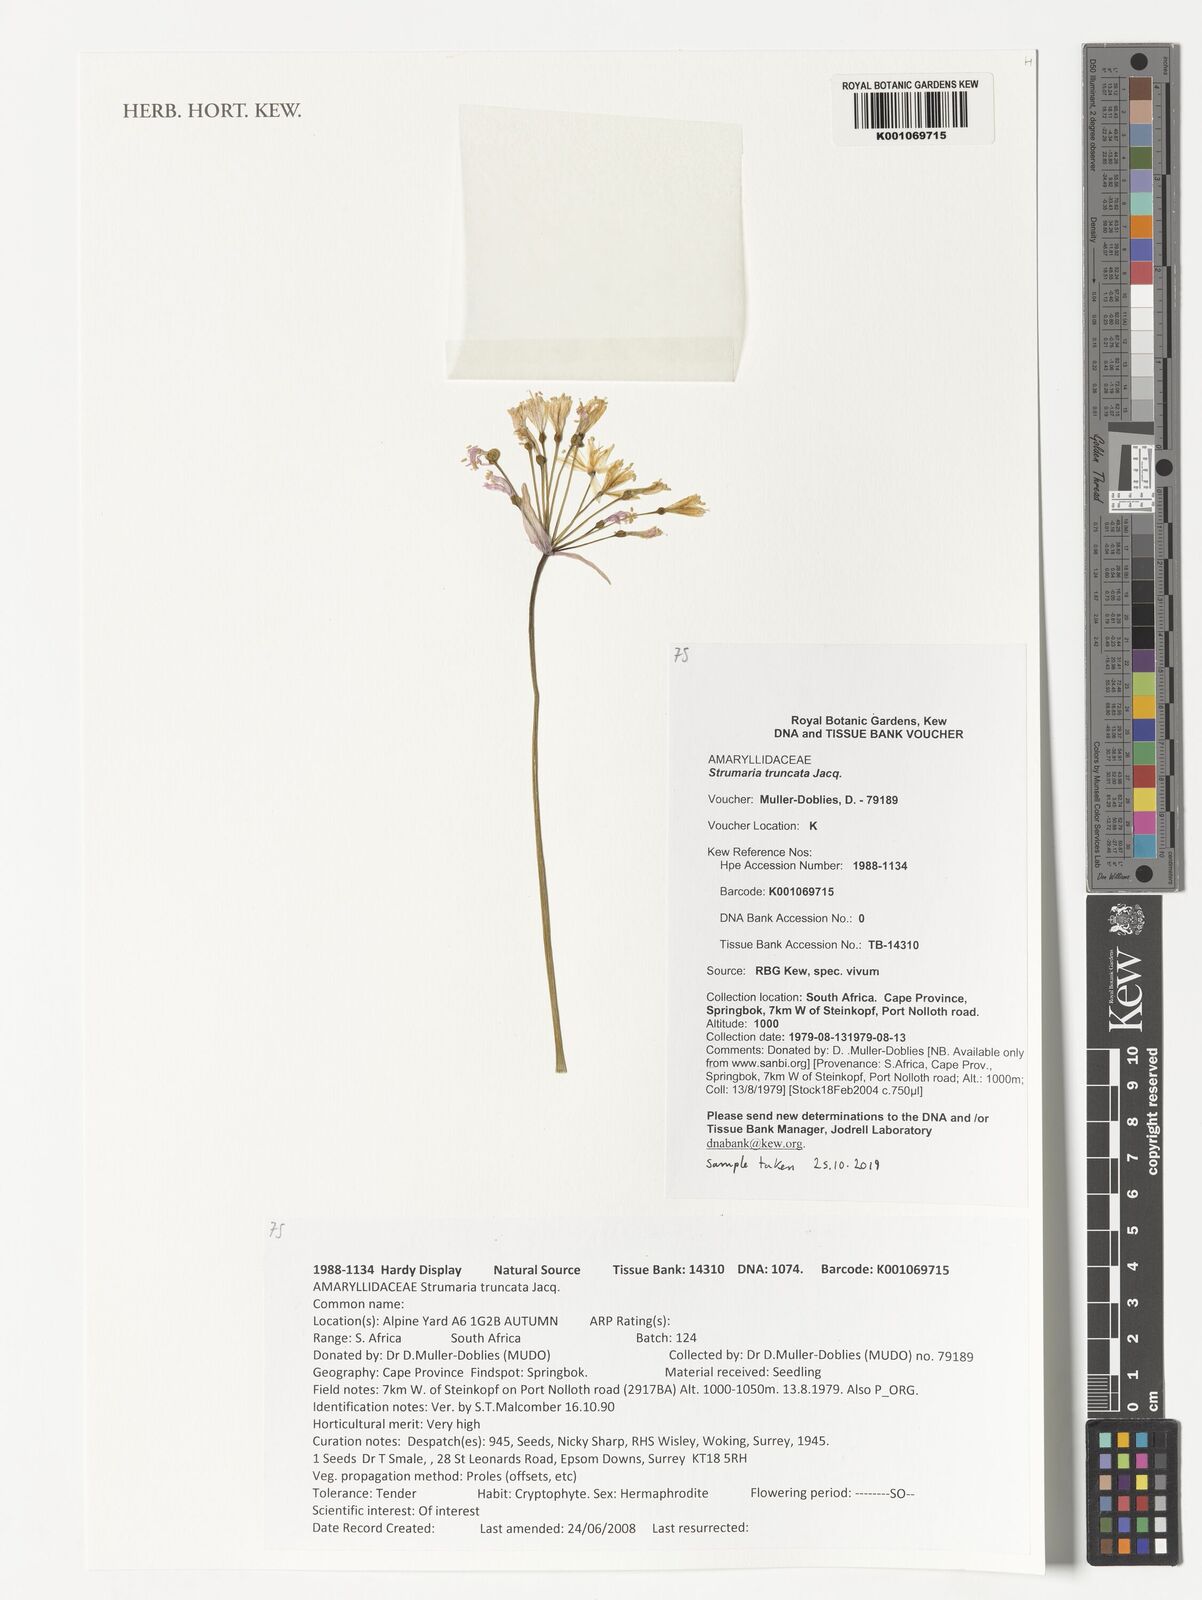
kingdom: Plantae
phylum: Tracheophyta
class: Liliopsida
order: Asparagales
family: Amaryllidaceae
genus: Strumaria
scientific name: Strumaria truncata
